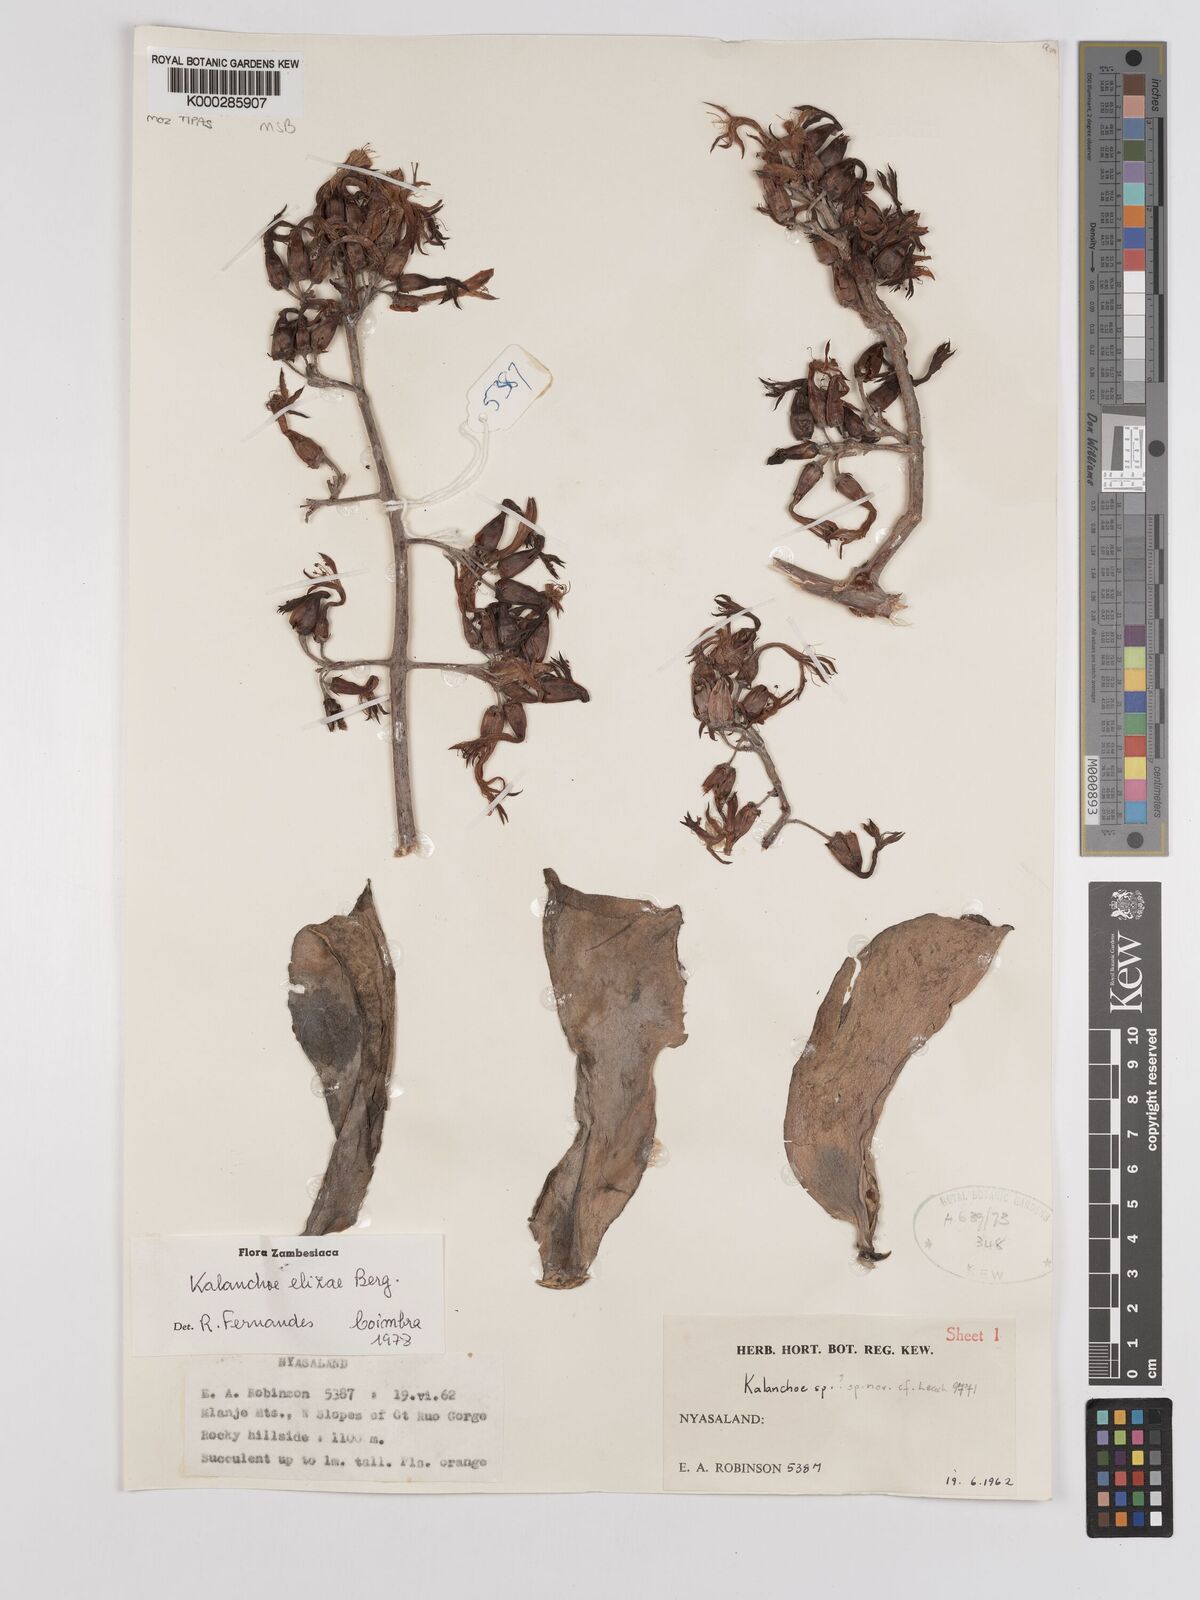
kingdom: Plantae
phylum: Tracheophyta
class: Magnoliopsida
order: Saxifragales
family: Crassulaceae
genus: Kalanchoe
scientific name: Kalanchoe elizae
